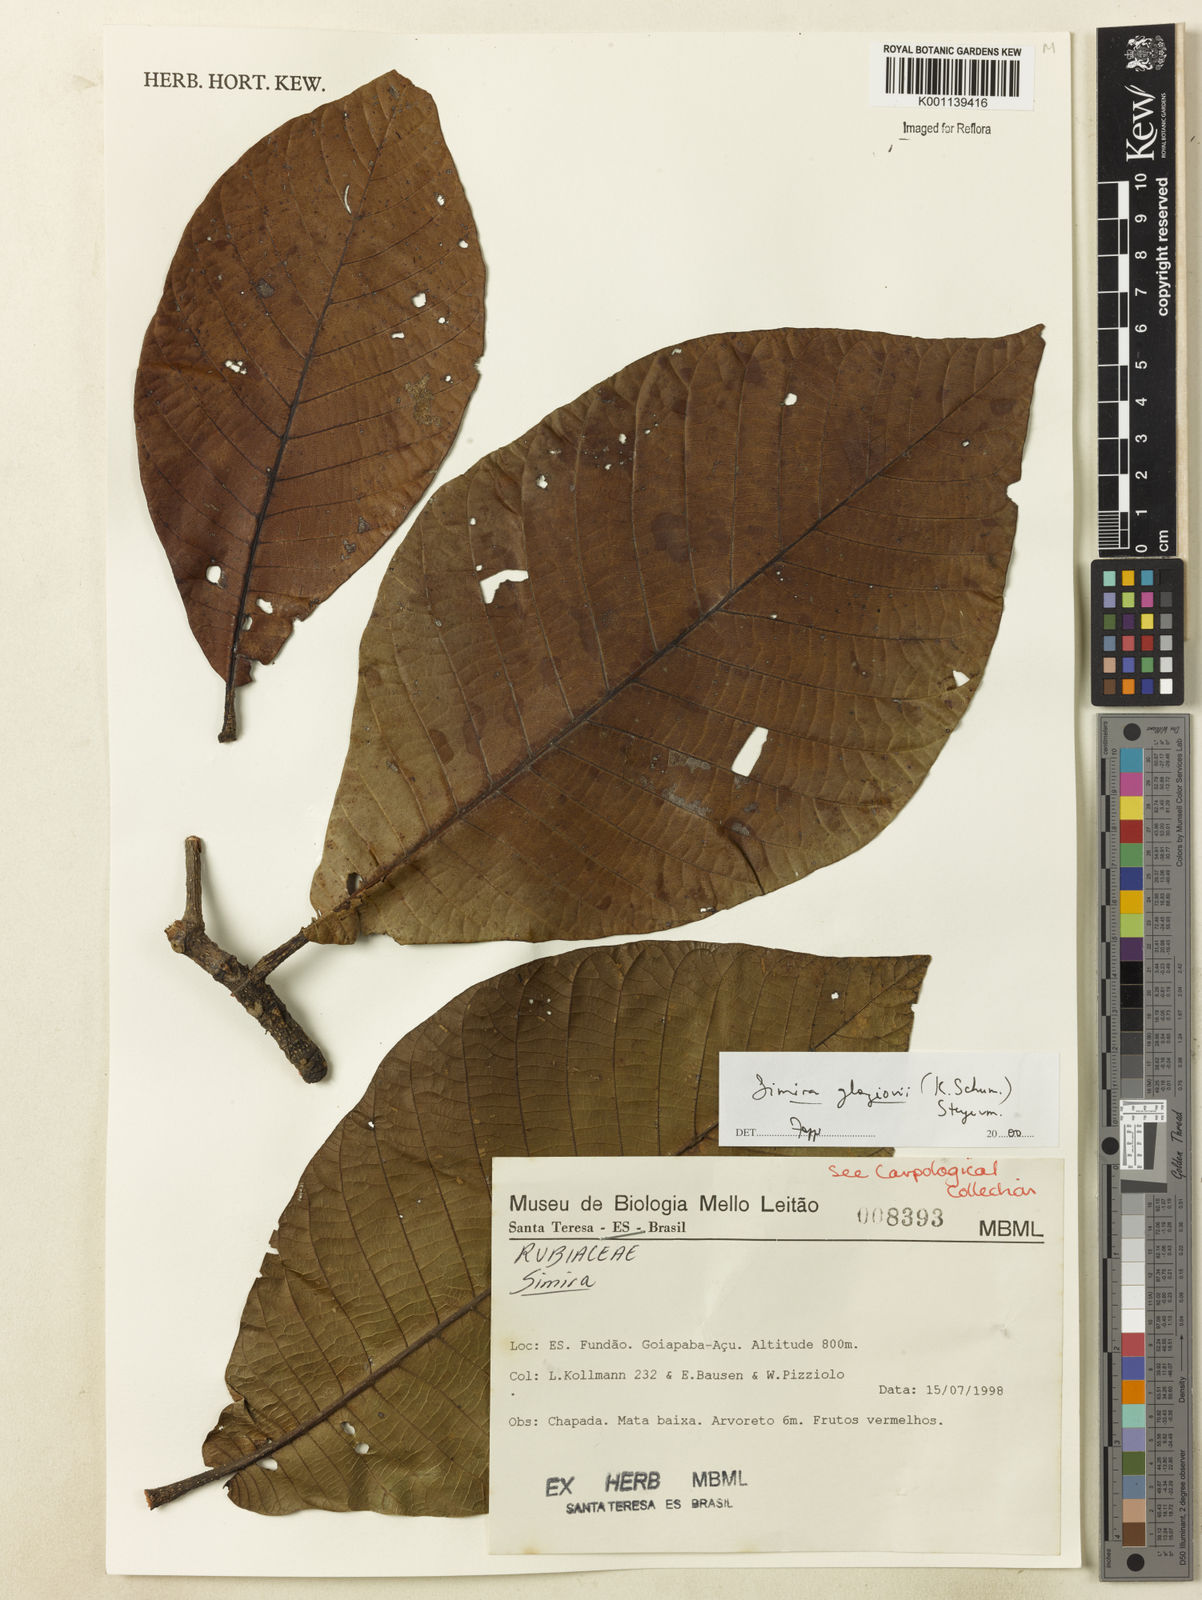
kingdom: Plantae
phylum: Tracheophyta
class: Magnoliopsida
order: Gentianales
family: Rubiaceae
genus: Simira
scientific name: Simira alba
